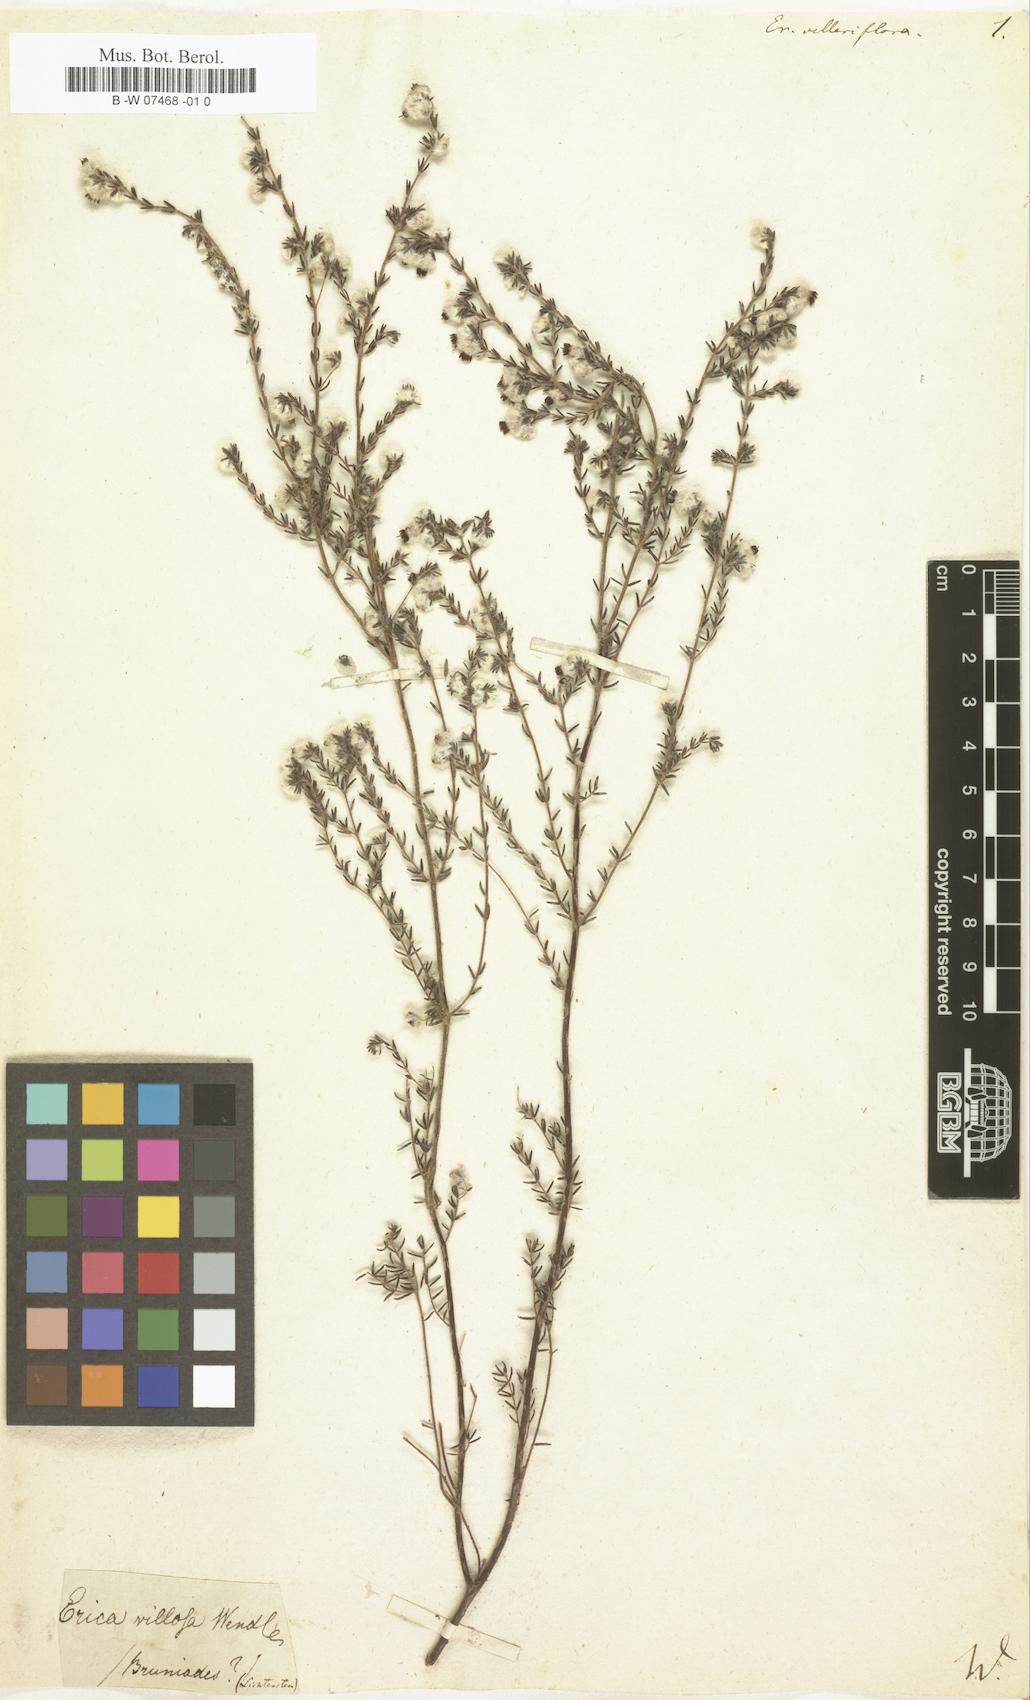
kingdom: Plantae
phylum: Tracheophyta
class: Magnoliopsida
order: Ericales
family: Ericaceae
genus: Erica
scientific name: Erica bruniades
